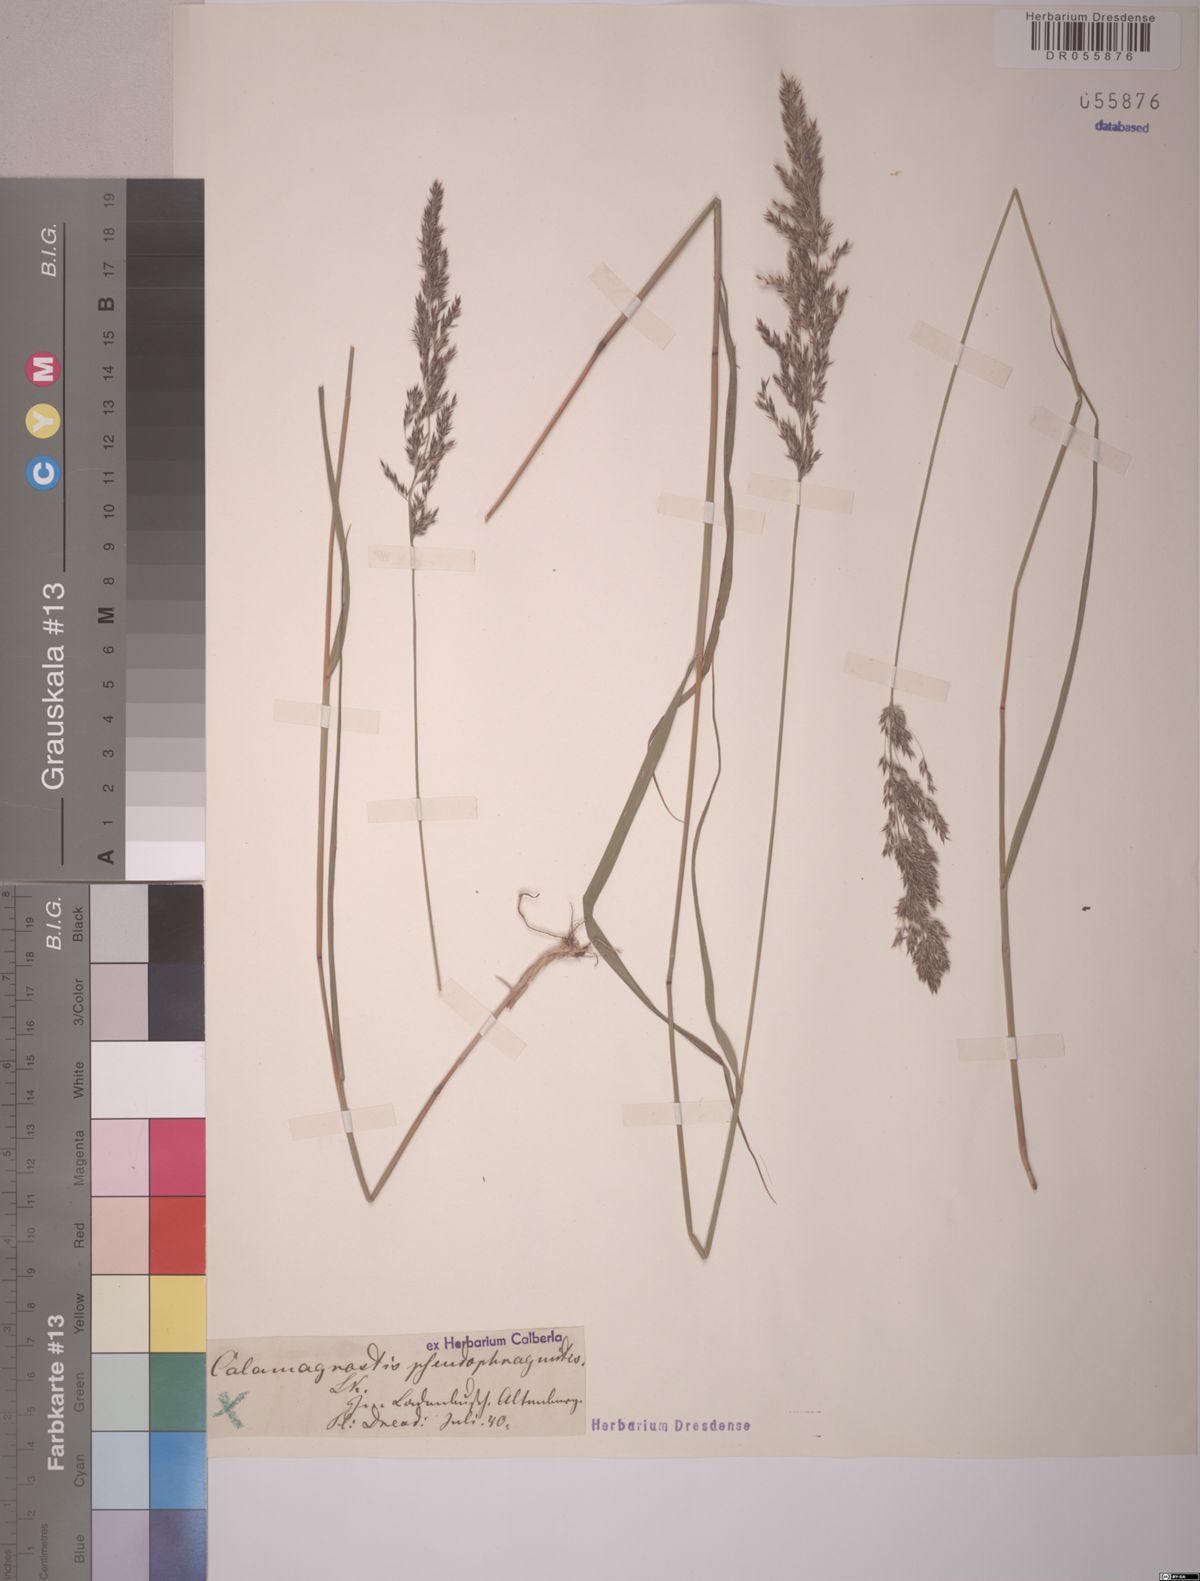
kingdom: Plantae
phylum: Tracheophyta
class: Liliopsida
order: Poales
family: Poaceae
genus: Calamagrostis
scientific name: Calamagrostis villosa
